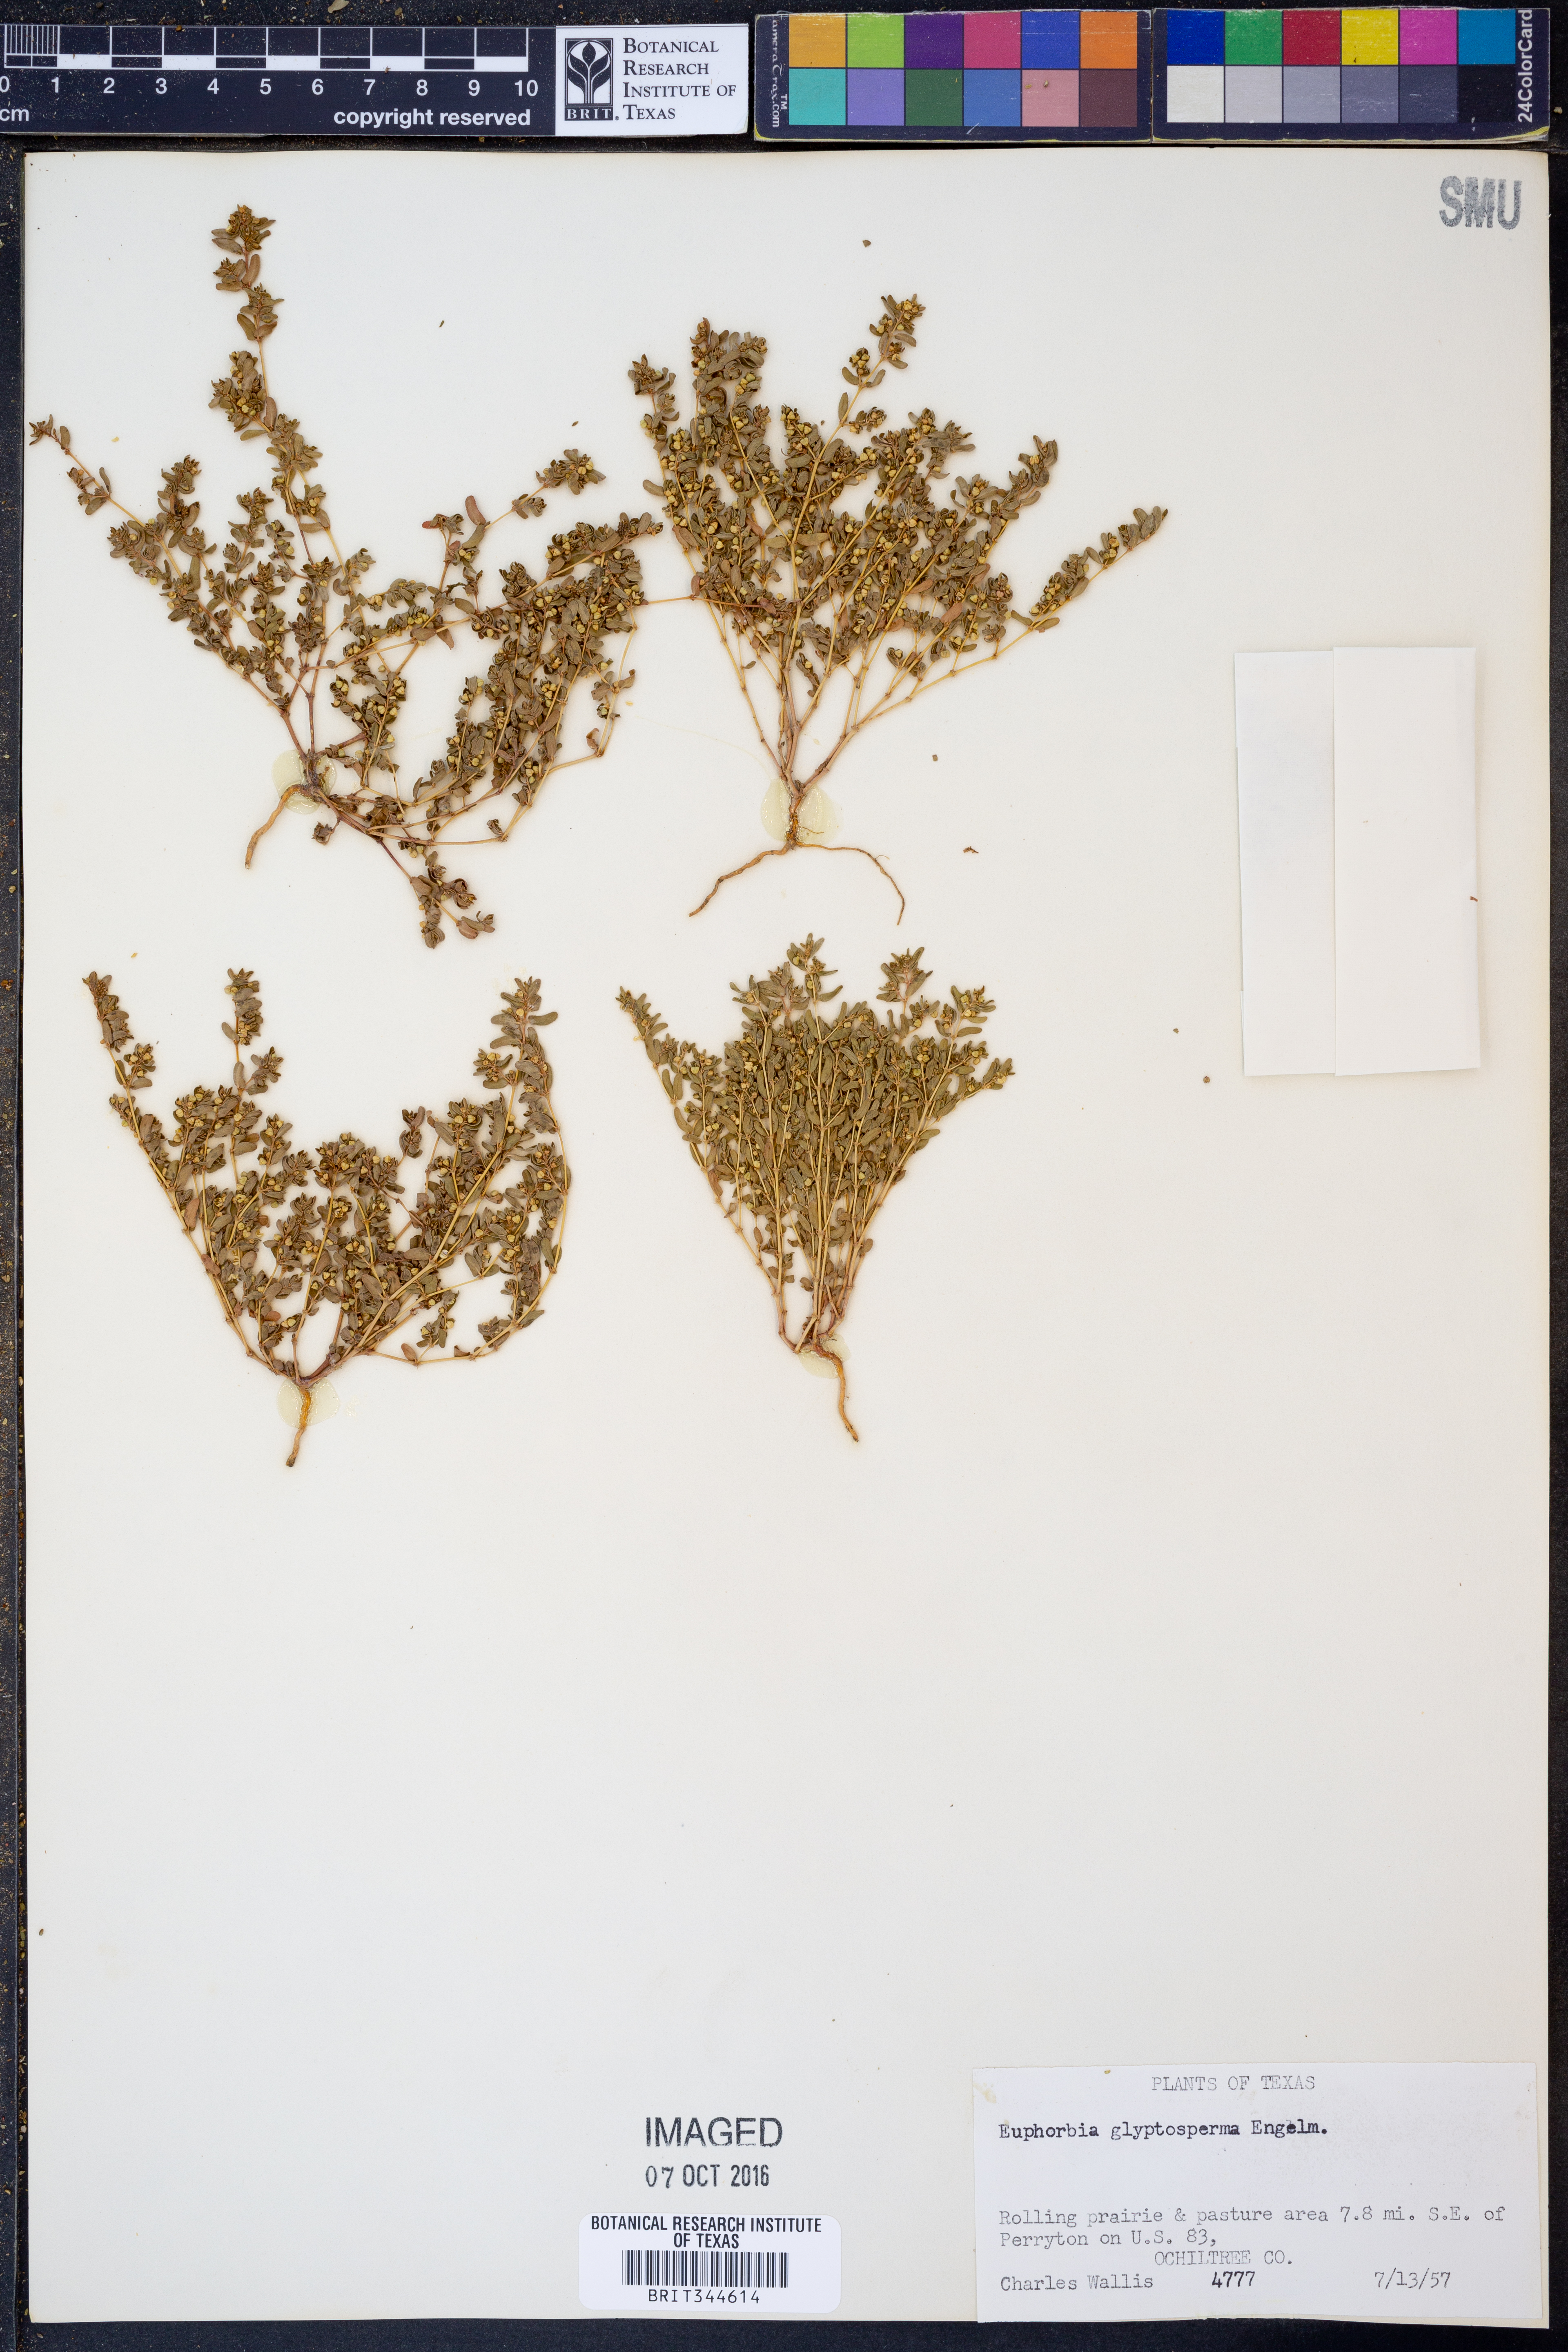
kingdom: Plantae
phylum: Tracheophyta
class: Magnoliopsida
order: Malpighiales
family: Euphorbiaceae
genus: Euphorbia
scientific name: Euphorbia glyptosperma
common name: Corrugate-seeded spurge
